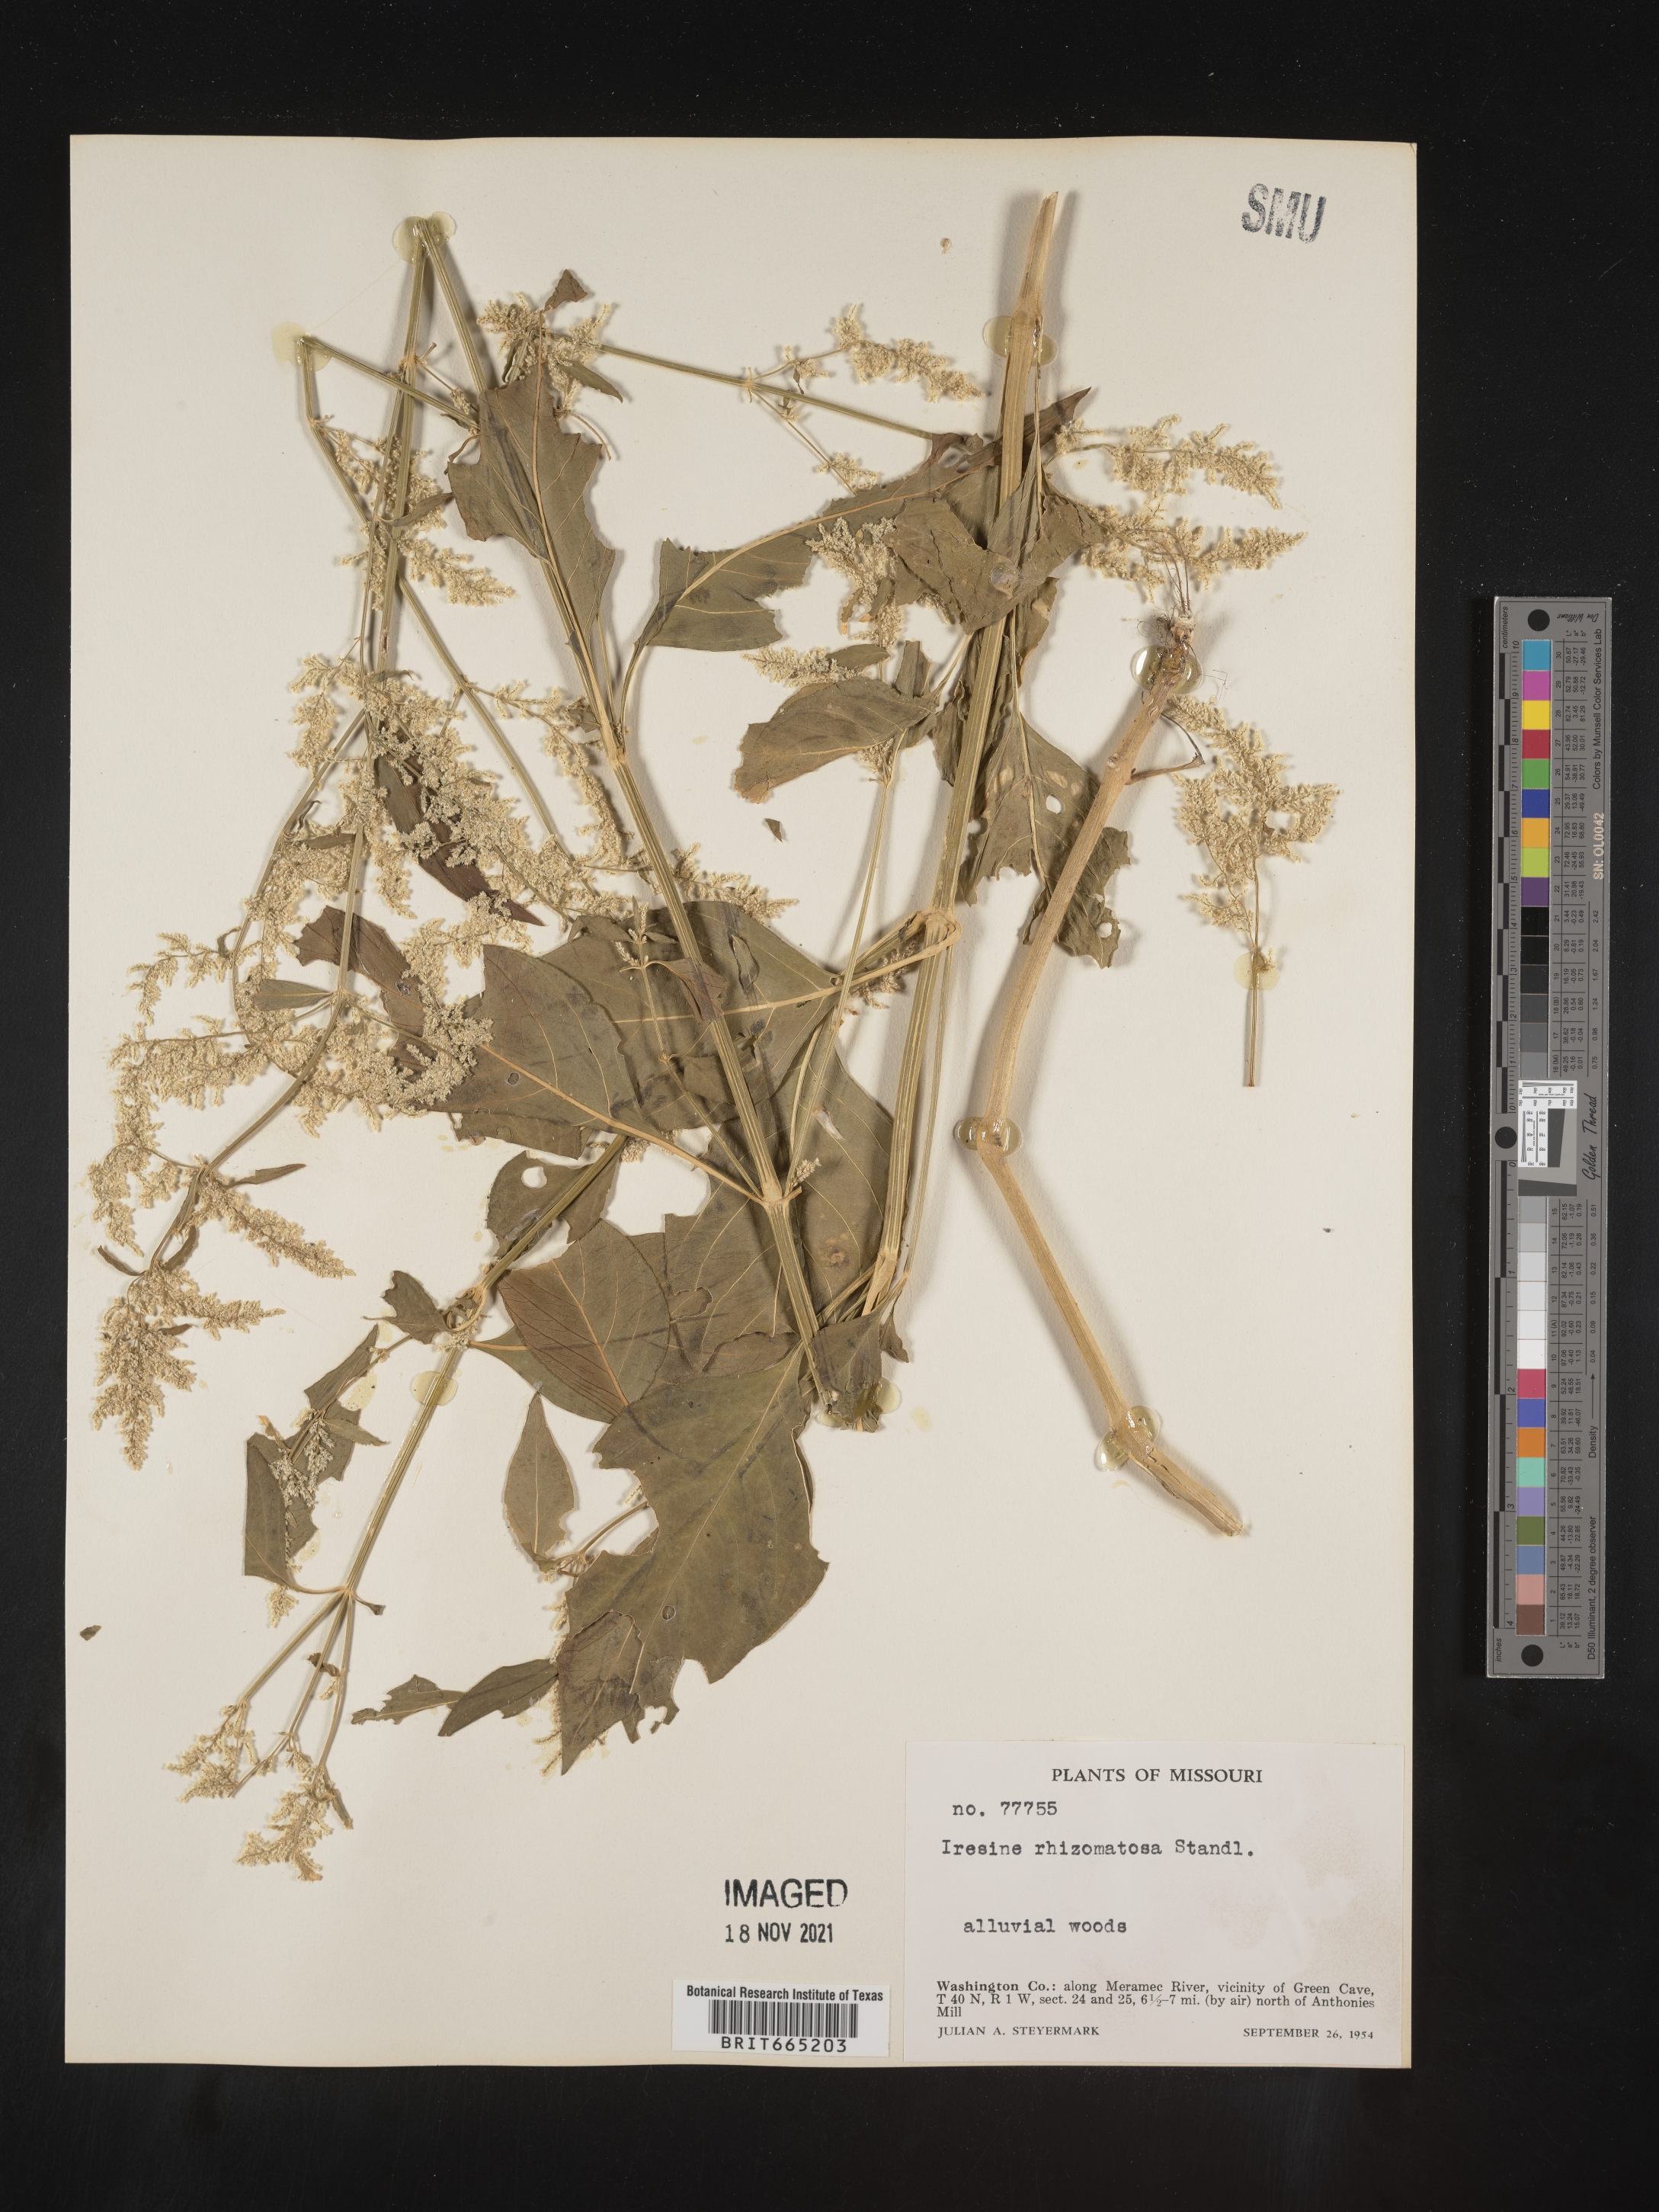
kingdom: Plantae
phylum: Tracheophyta
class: Magnoliopsida
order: Caryophyllales
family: Amaranthaceae
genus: Iresine
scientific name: Iresine rhizomatosa
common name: Juda's-bush
